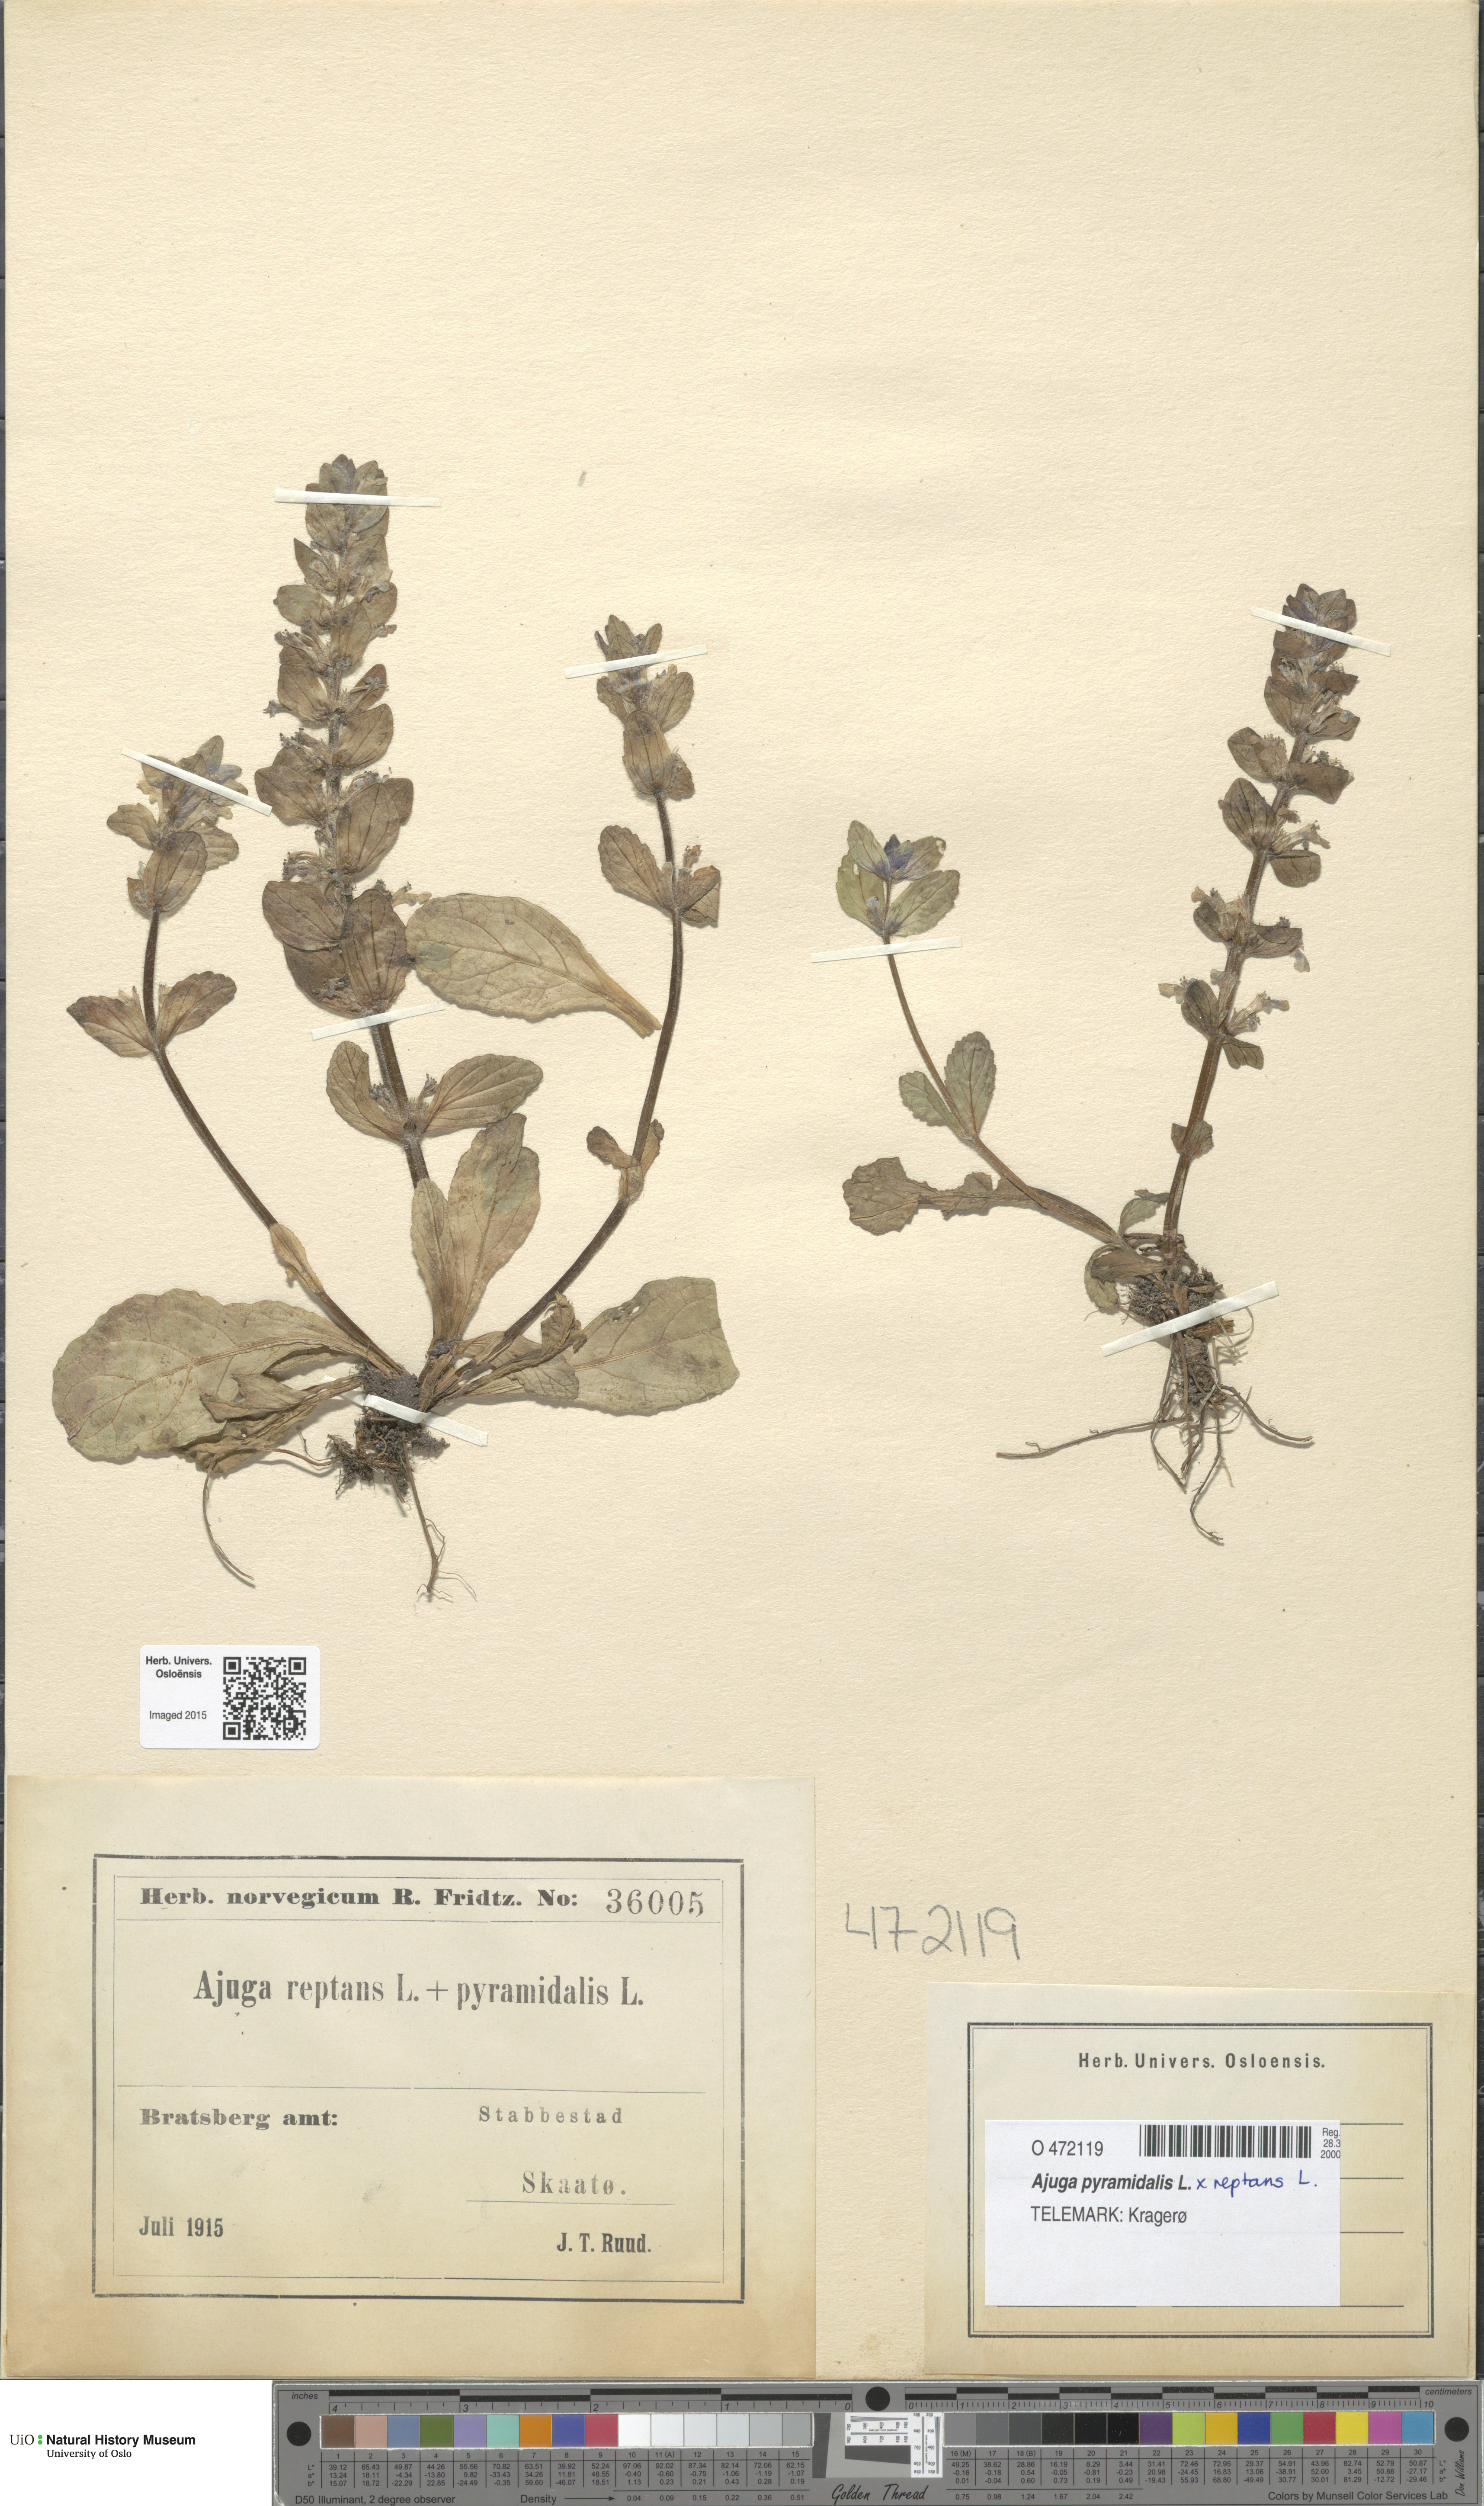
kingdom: Plantae
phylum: Tracheophyta
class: Magnoliopsida
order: Lamiales
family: Lamiaceae
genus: Ajuga
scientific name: Ajuga
